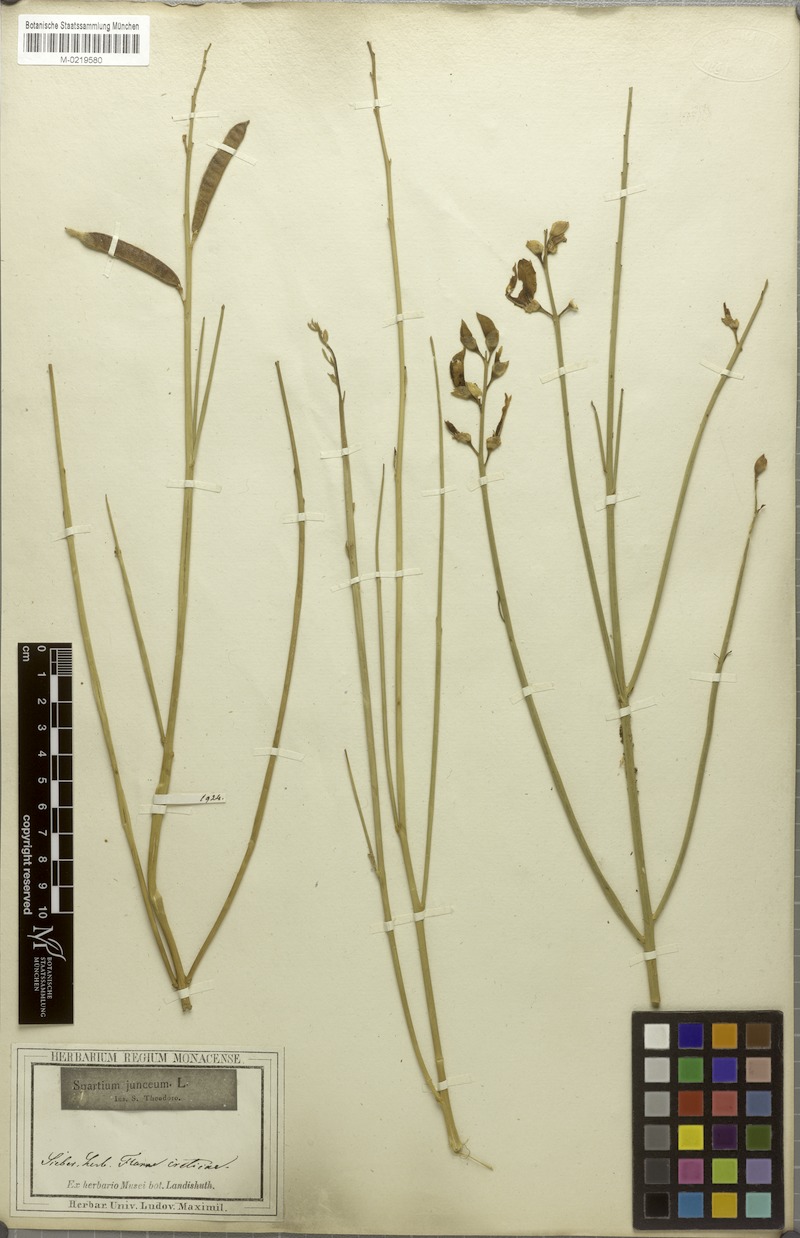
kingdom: Plantae
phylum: Tracheophyta
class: Magnoliopsida
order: Fabales
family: Fabaceae
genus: Spartium
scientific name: Spartium junceum
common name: Spanish broom
